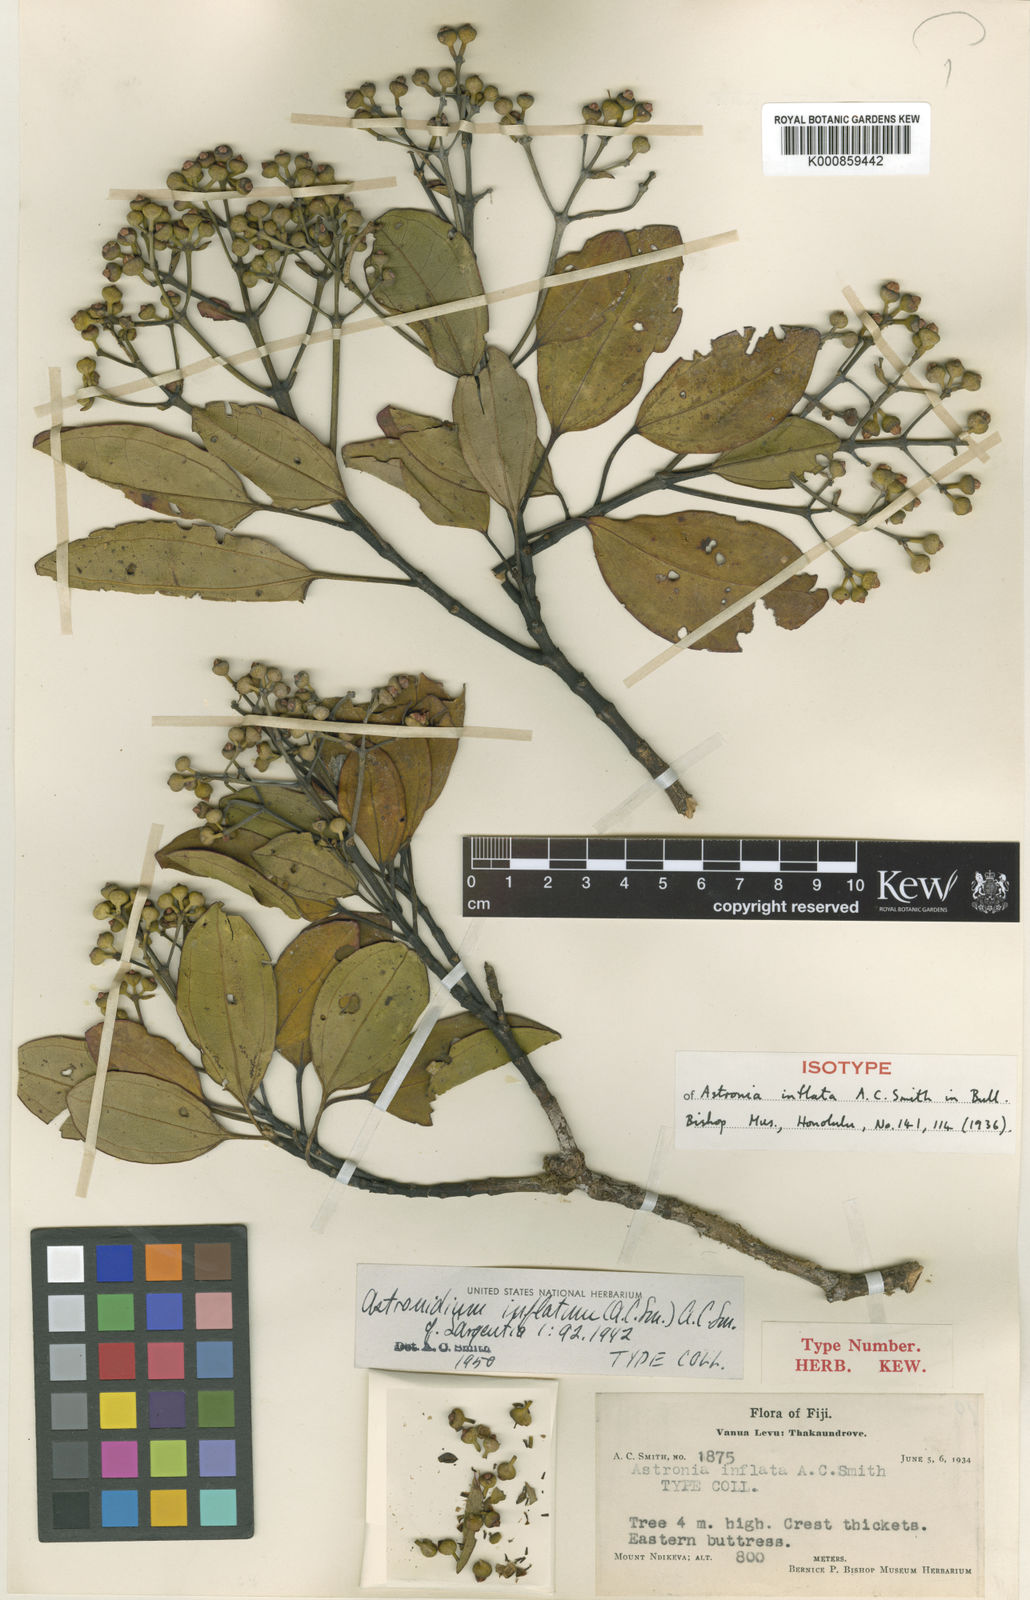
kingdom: Plantae
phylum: Tracheophyta
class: Magnoliopsida
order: Myrtales
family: Melastomataceae
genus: Astronidium
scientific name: Astronidium inflatum
